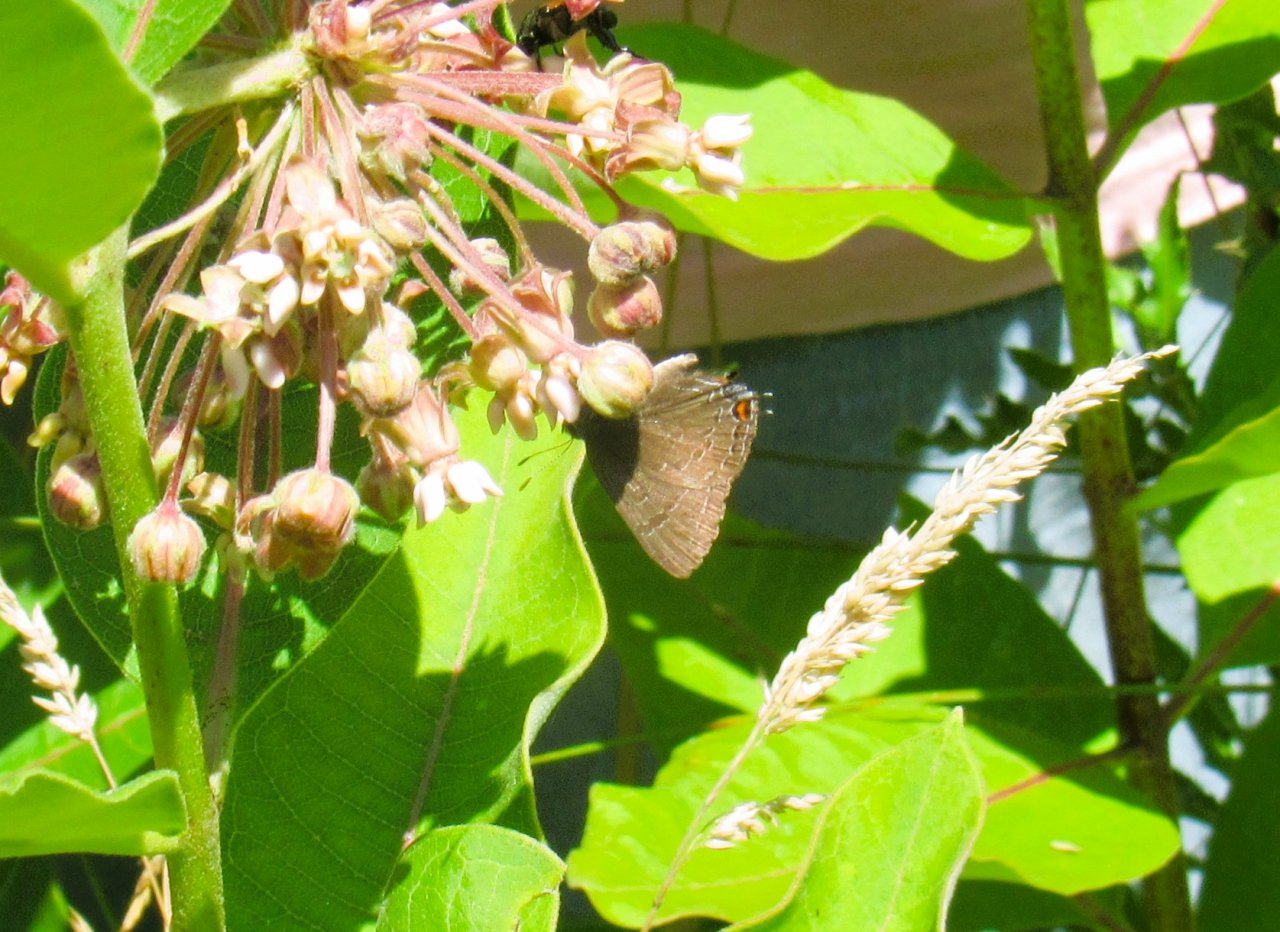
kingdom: Animalia
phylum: Arthropoda
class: Insecta
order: Lepidoptera
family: Lycaenidae
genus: Satyrium
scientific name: Satyrium calanus
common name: Banded Hairstreak
